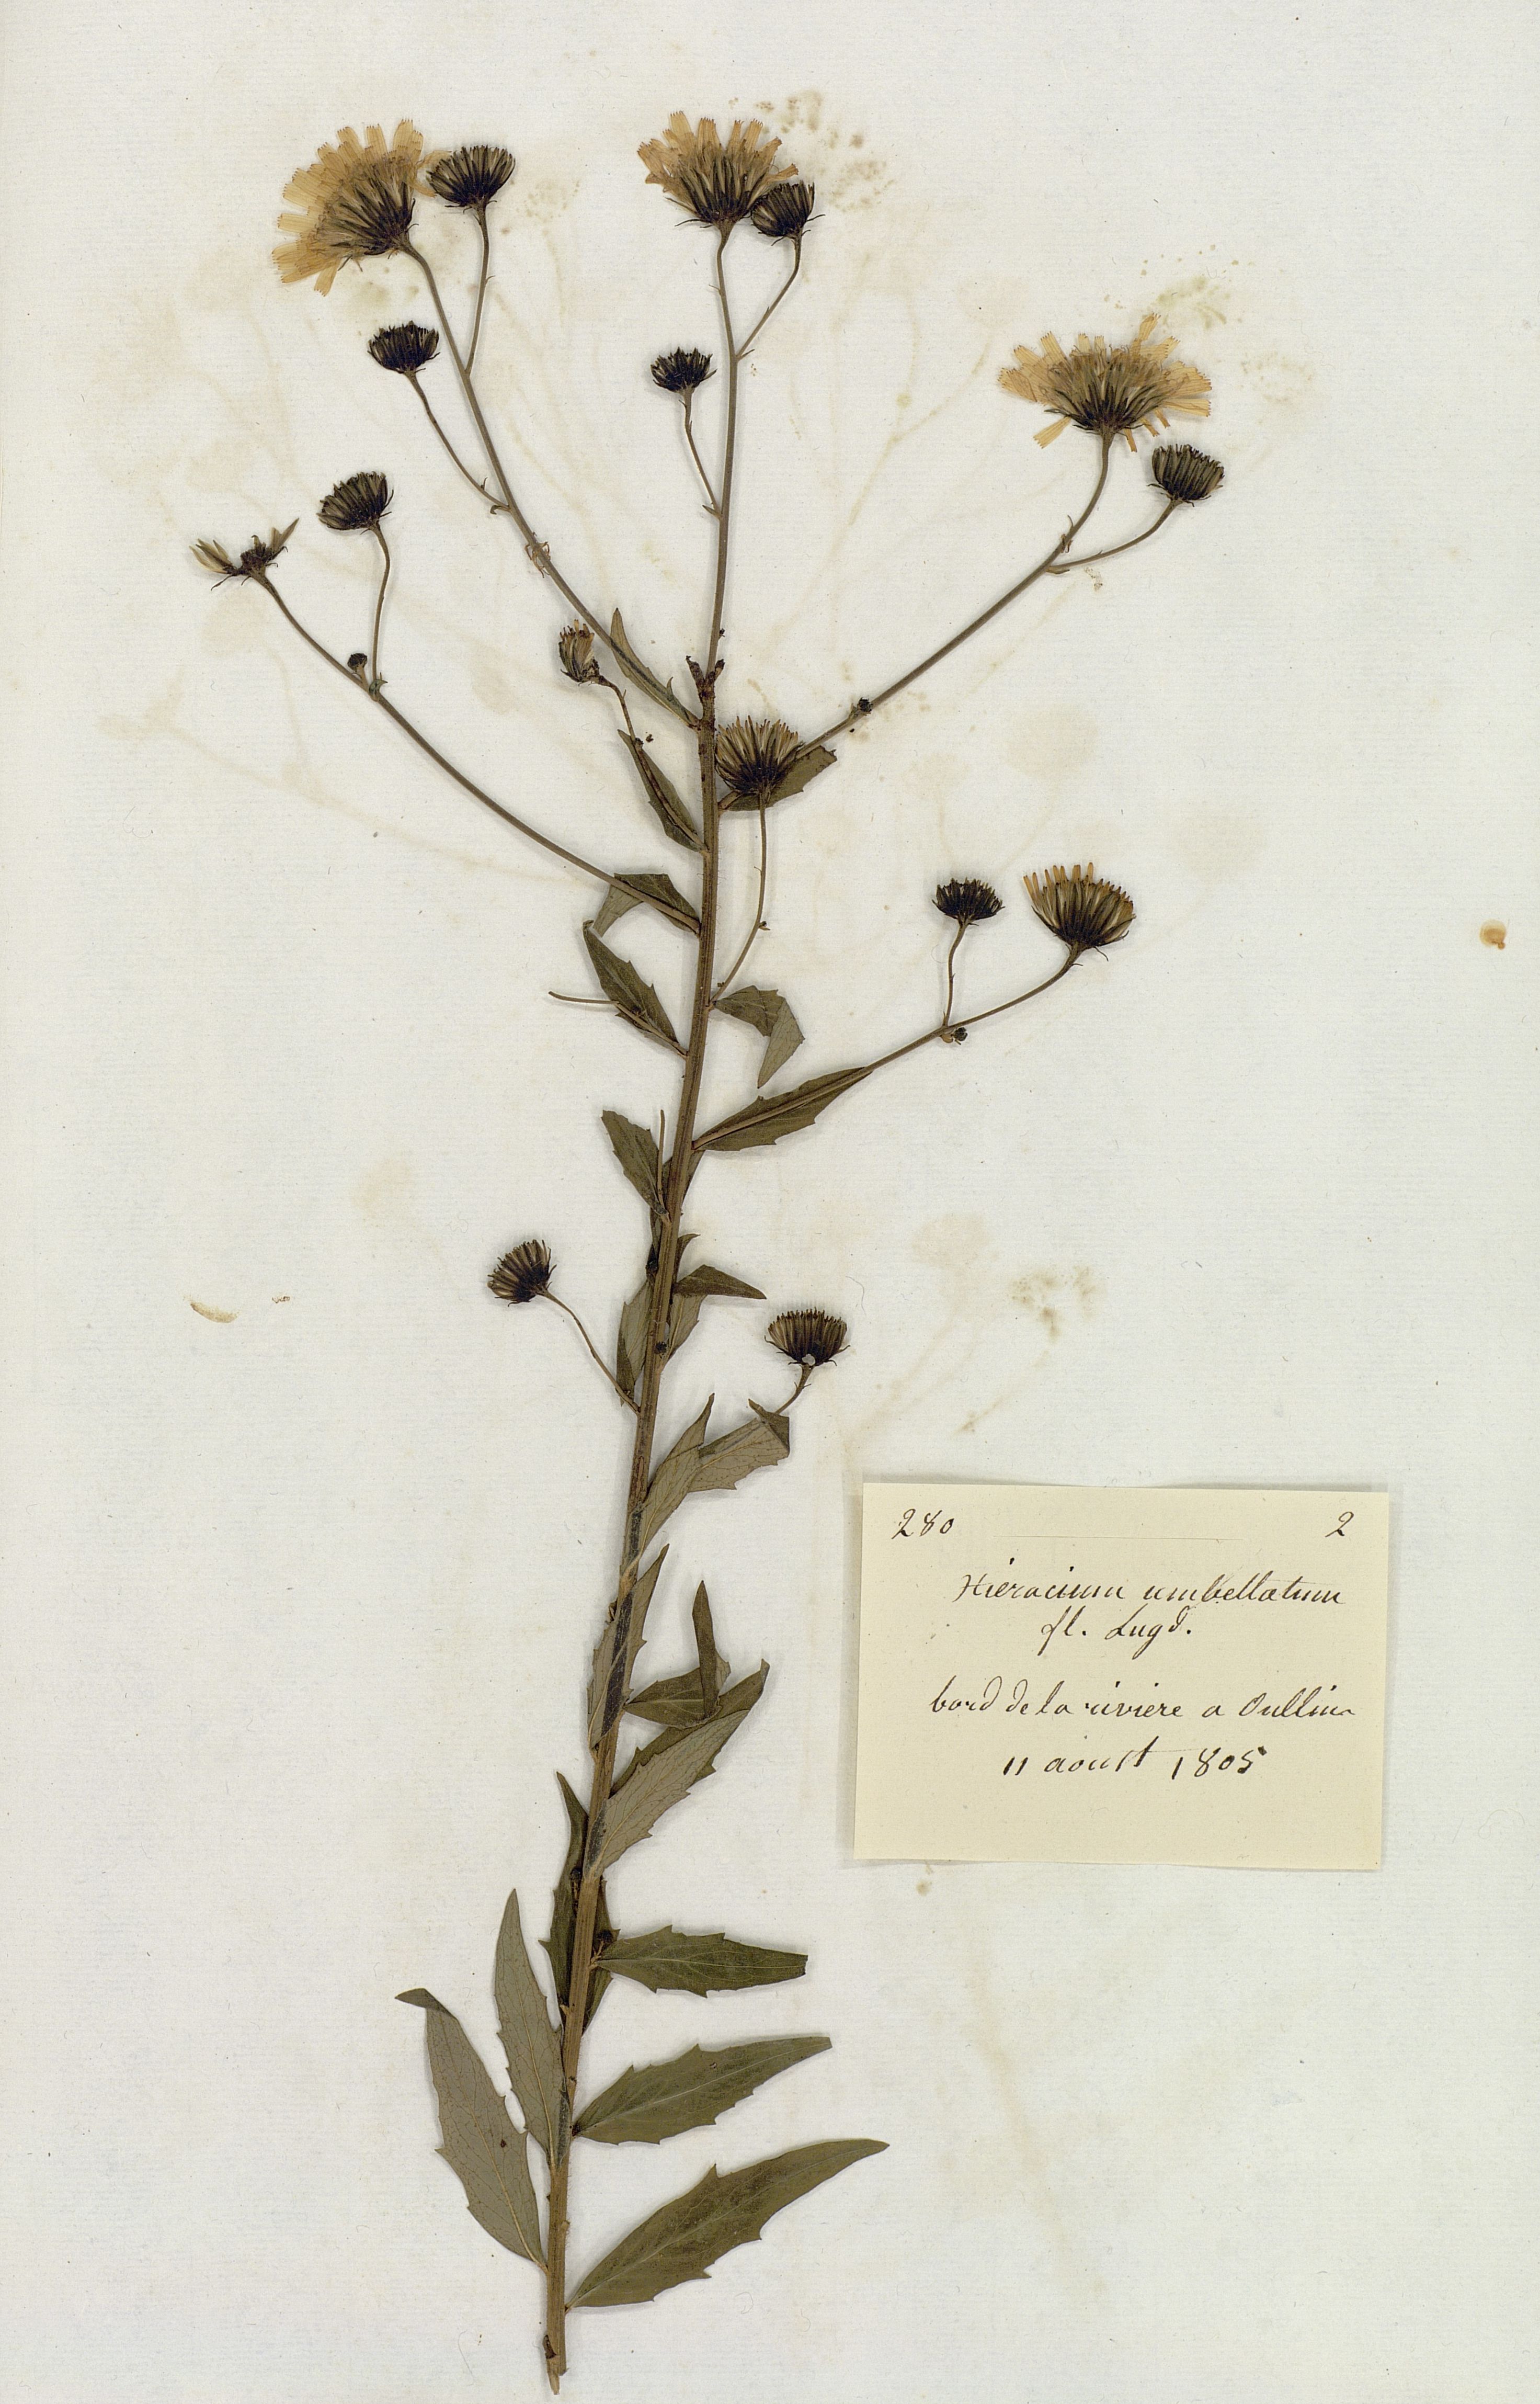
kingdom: Plantae
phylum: Tracheophyta
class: Magnoliopsida
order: Asterales
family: Asteraceae
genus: Hieracium
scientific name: Hieracium umbellatum
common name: Northern hawkweed
